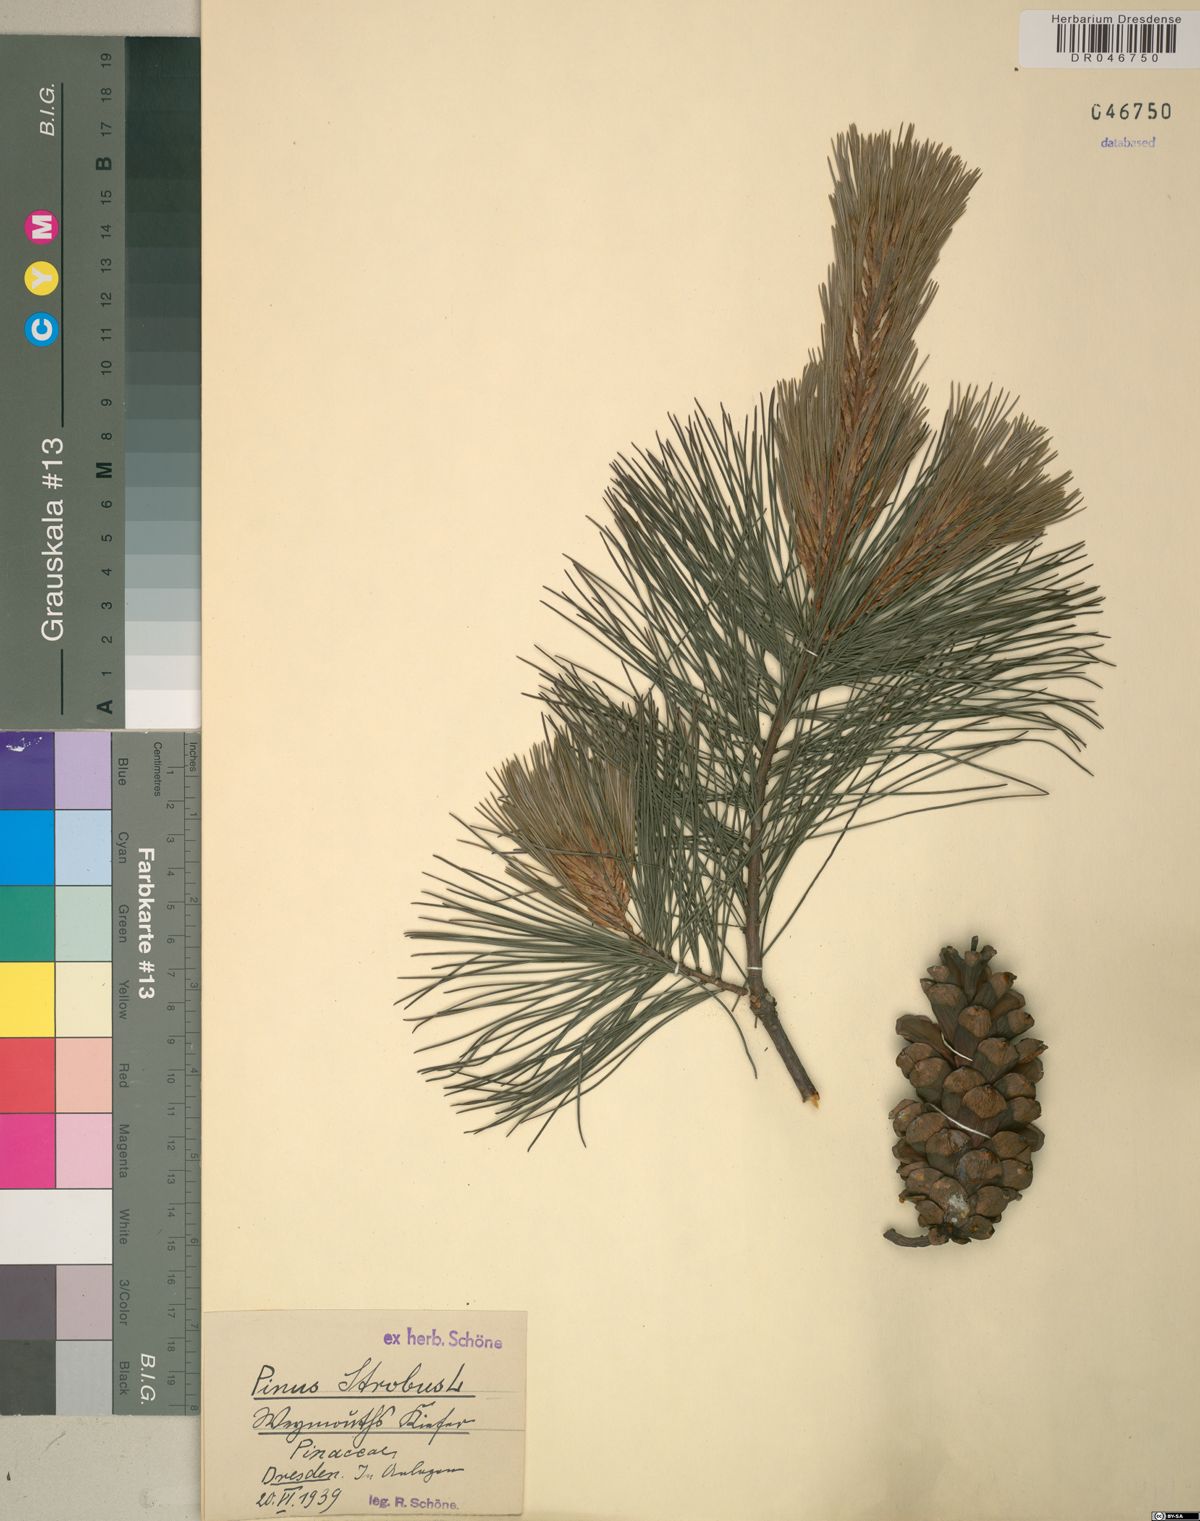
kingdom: Plantae
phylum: Tracheophyta
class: Pinopsida
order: Pinales
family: Pinaceae
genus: Pinus
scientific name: Pinus strobus
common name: Weymouth pine
